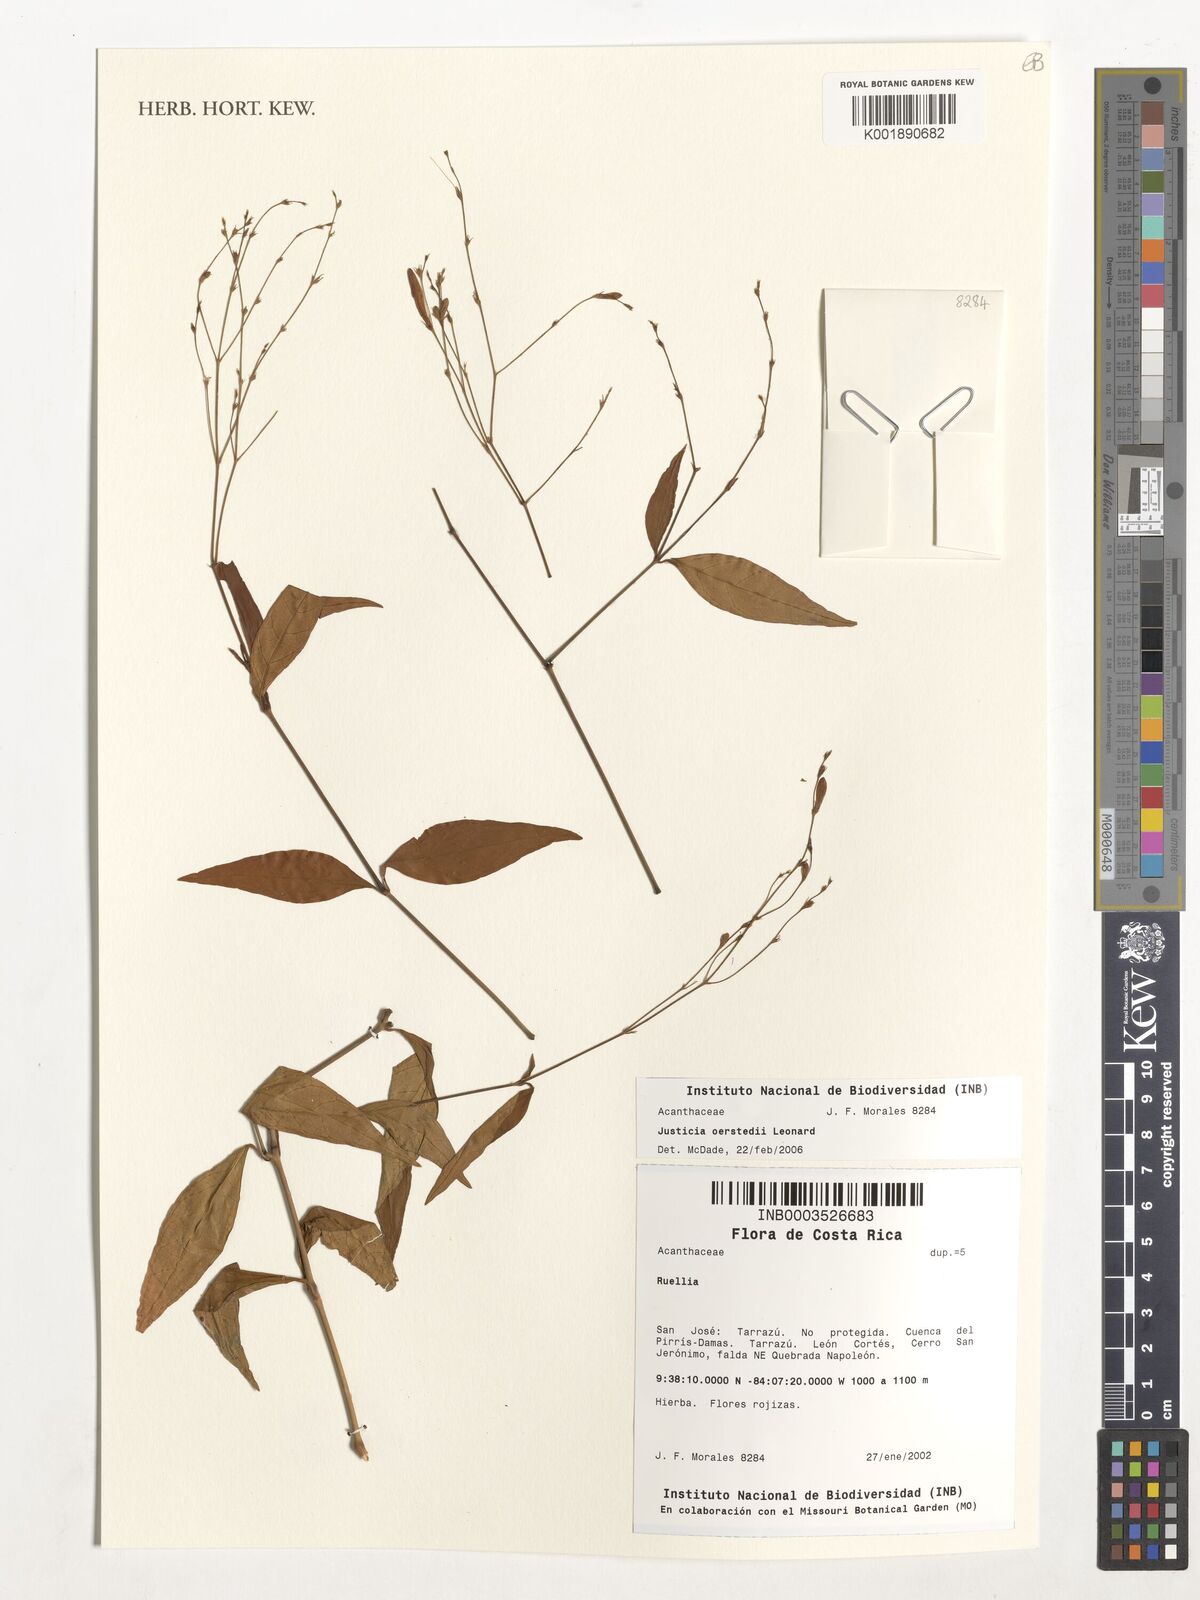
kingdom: Plantae
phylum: Tracheophyta
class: Magnoliopsida
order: Lamiales
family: Acanthaceae
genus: Ruellia
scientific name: Ruellia
